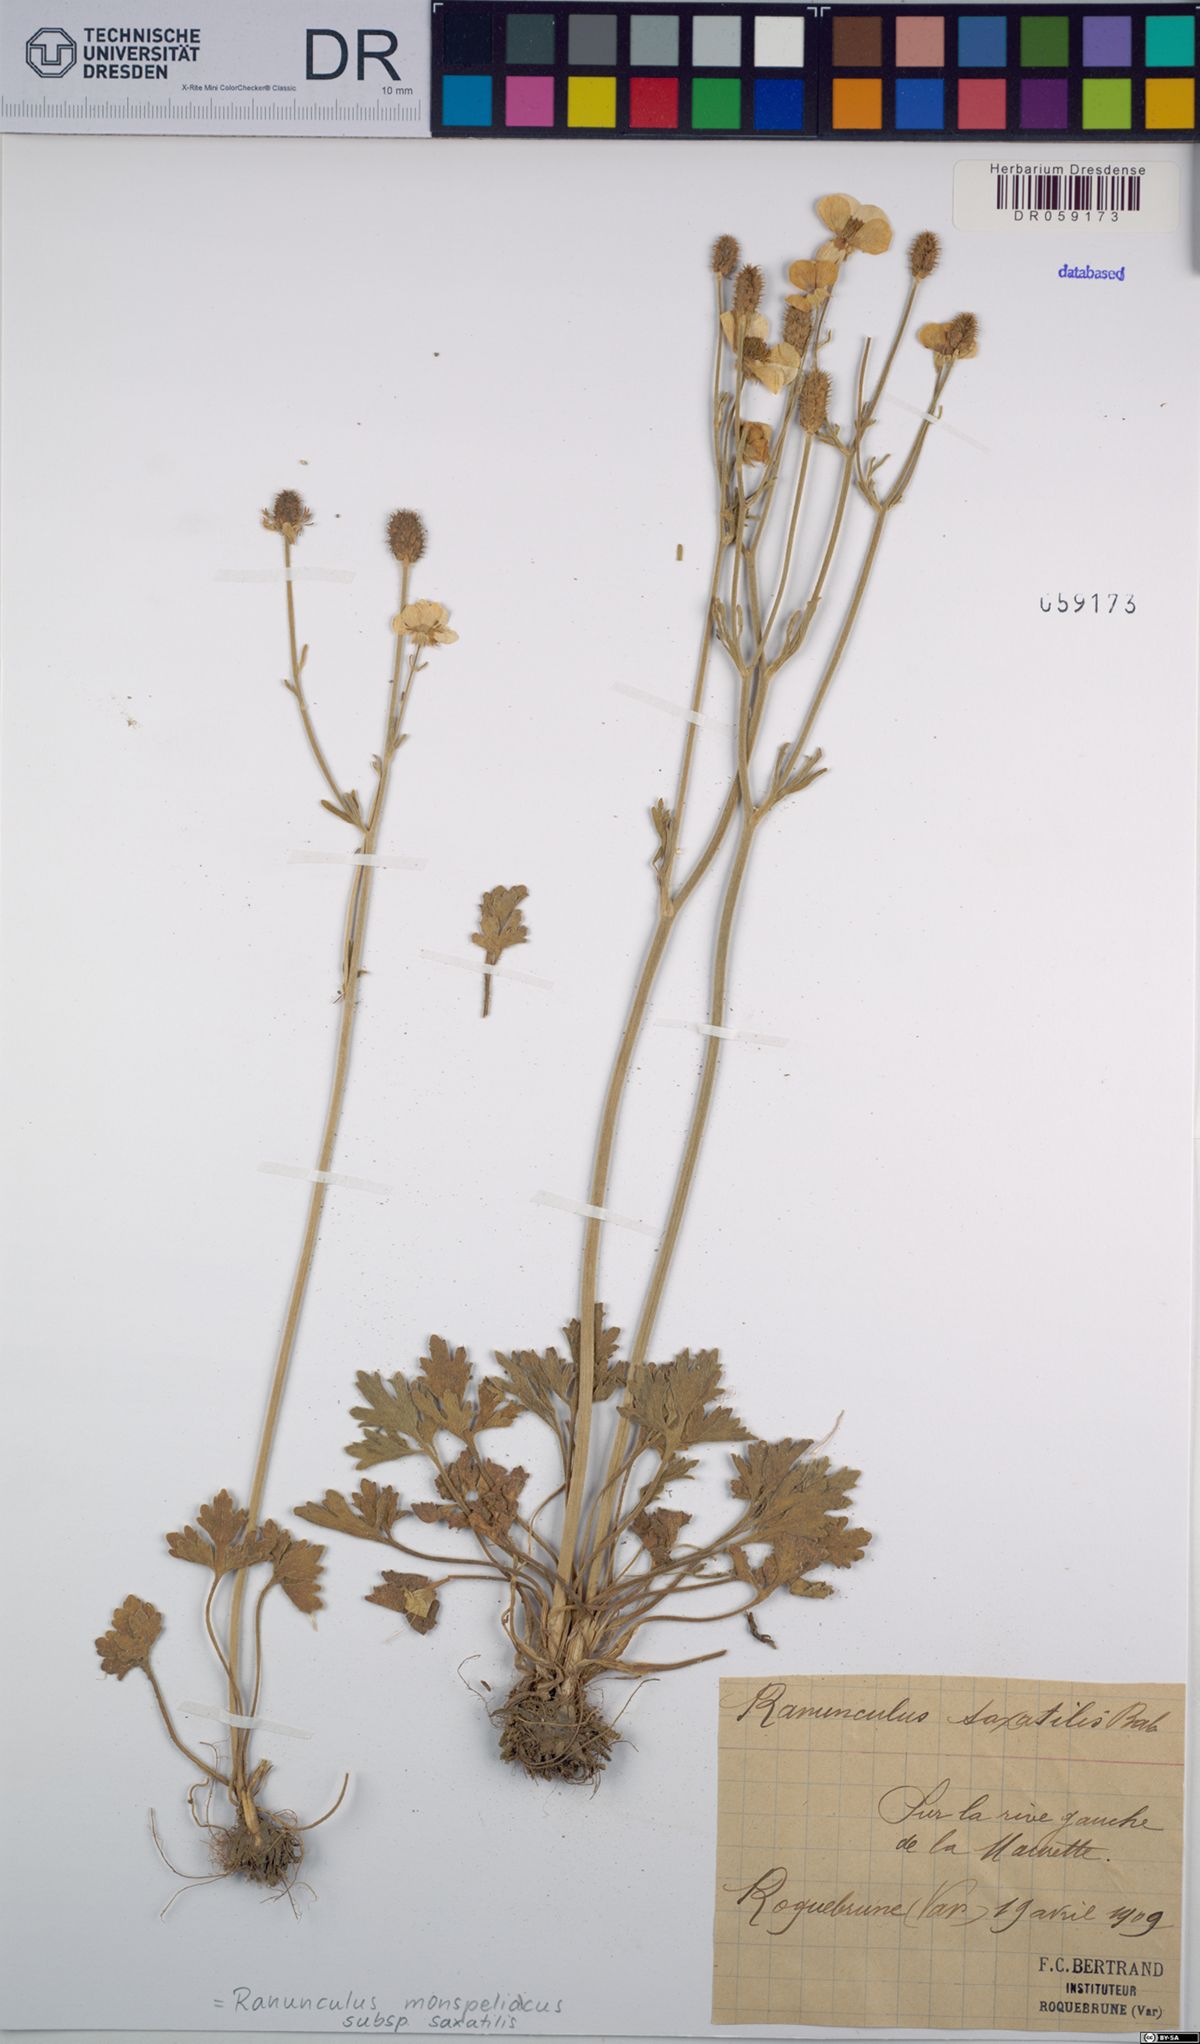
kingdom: Plantae
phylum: Tracheophyta
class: Magnoliopsida
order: Ranunculales
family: Ranunculaceae
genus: Ranunculus
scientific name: Ranunculus monspeliacus
